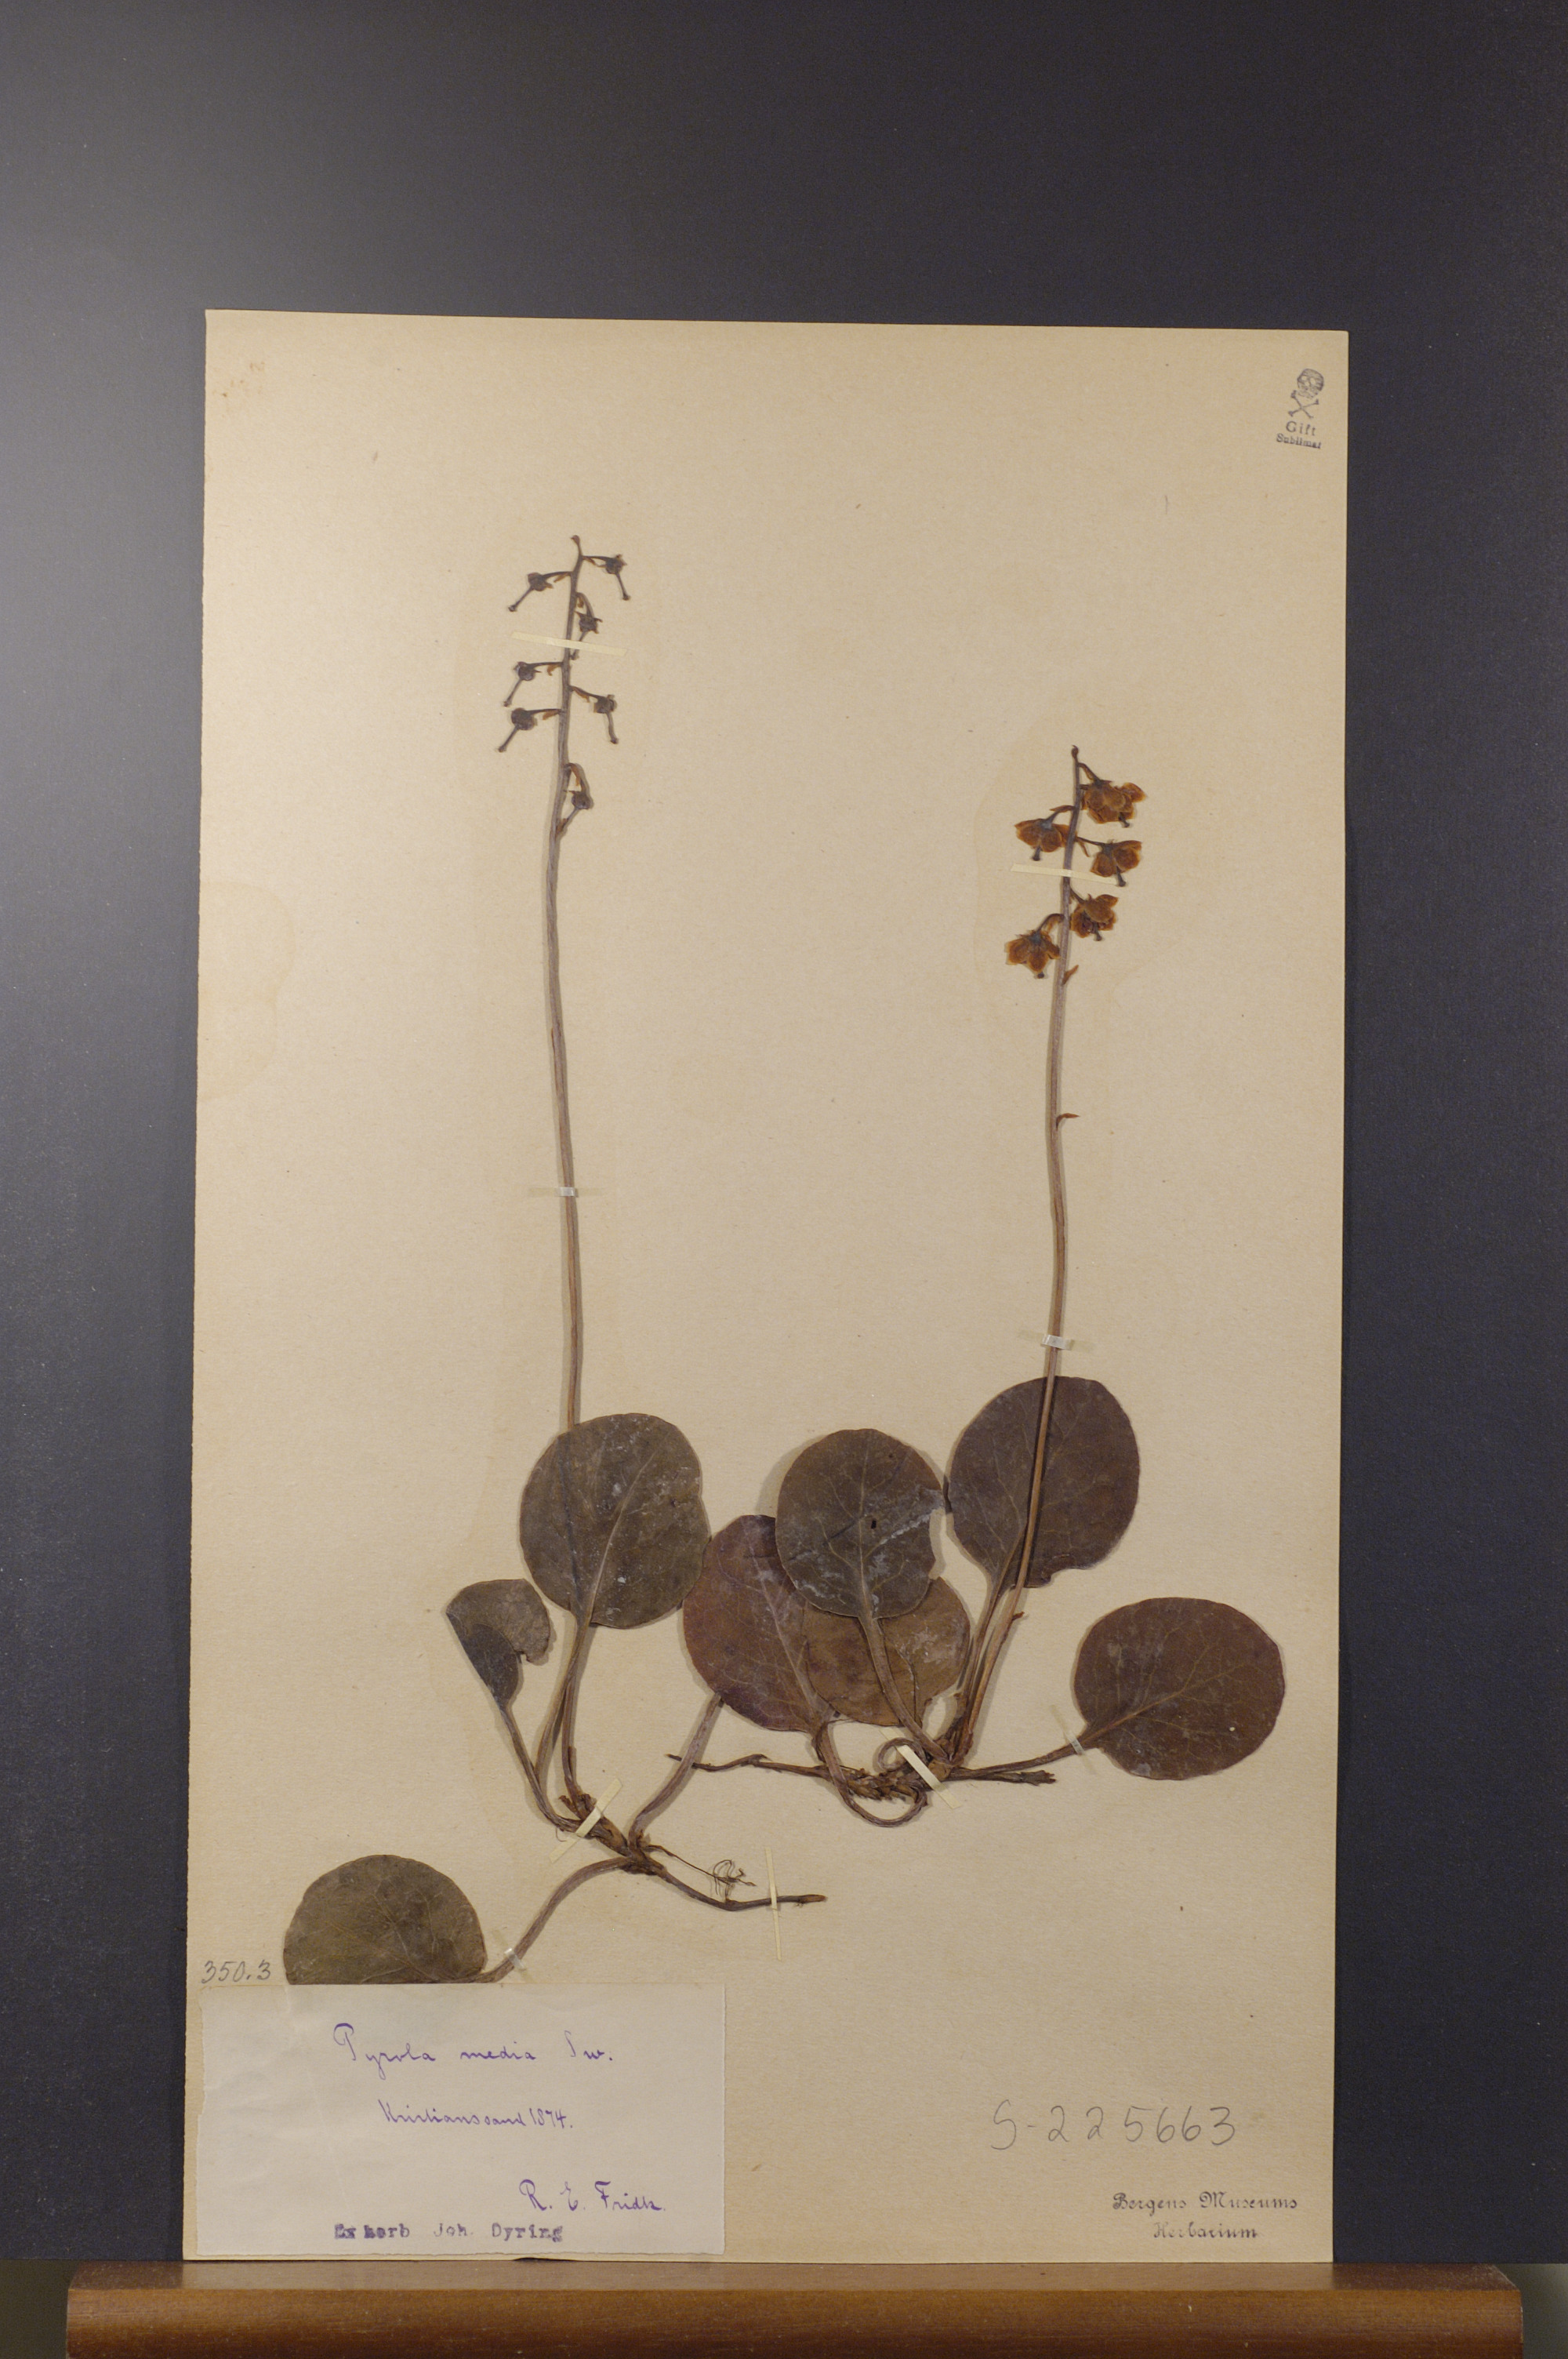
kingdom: Plantae
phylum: Tracheophyta
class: Magnoliopsida
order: Ericales
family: Ericaceae
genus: Pyrola
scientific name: Pyrola media
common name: Intermediate wintergreen
